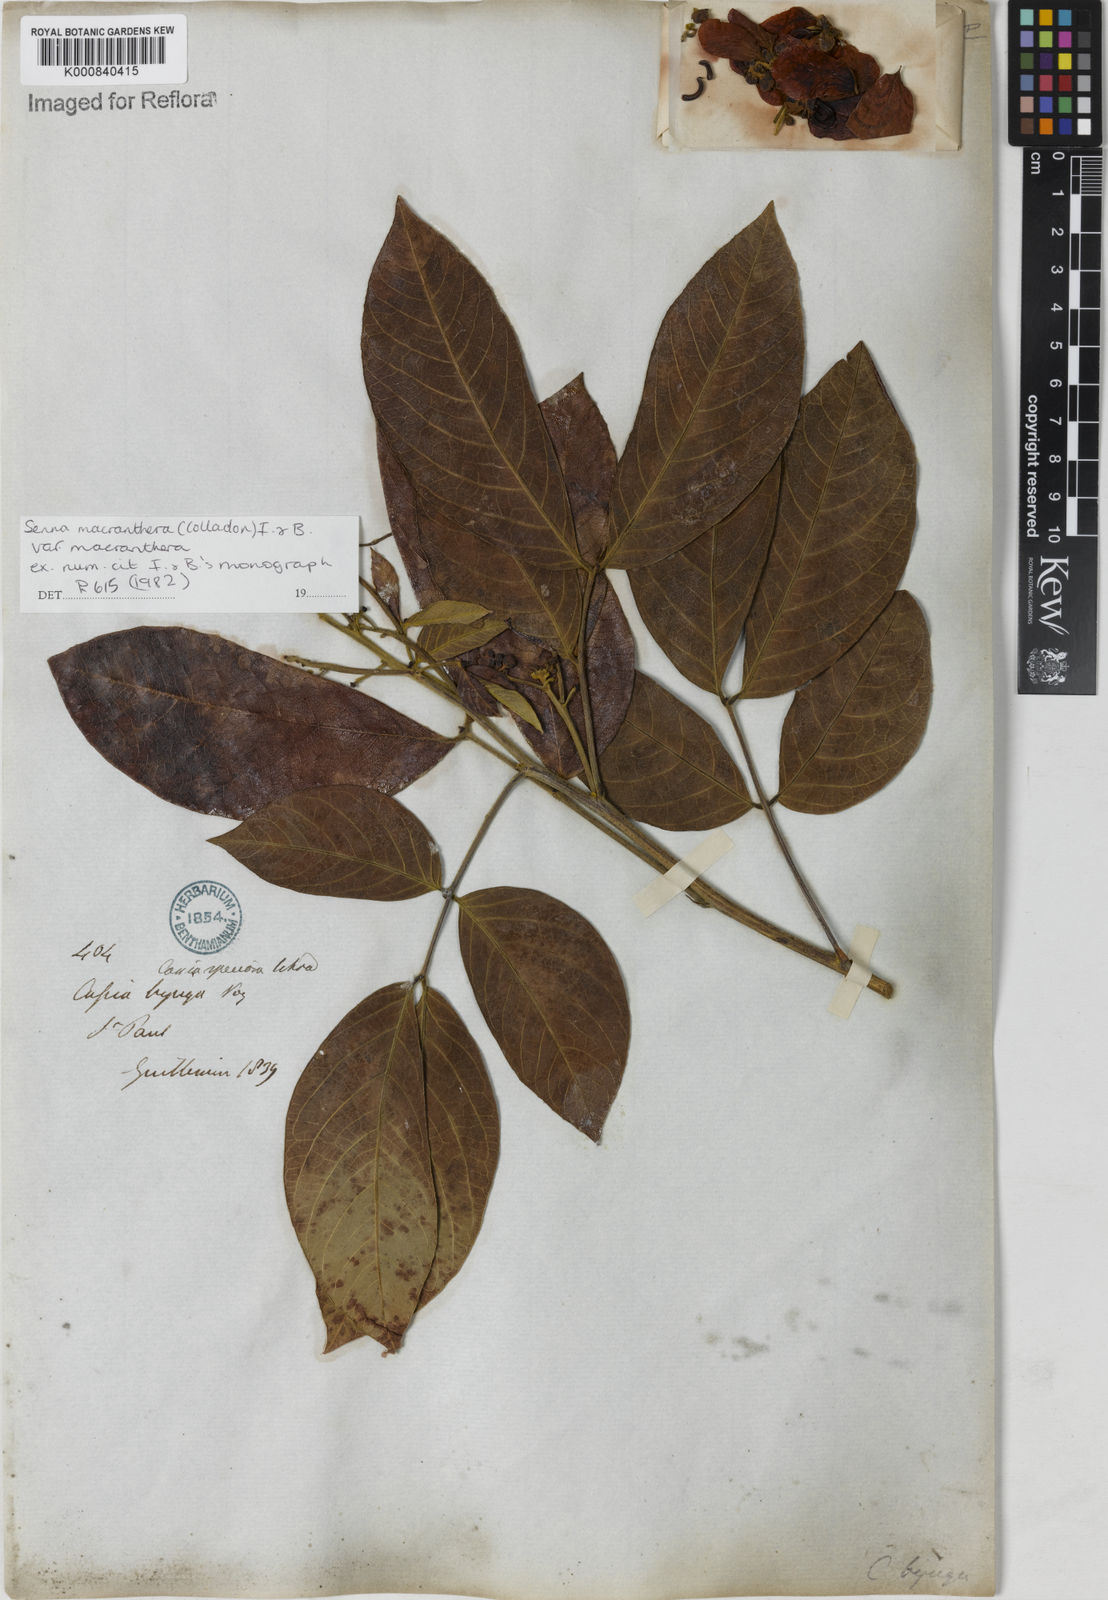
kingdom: Plantae
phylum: Tracheophyta
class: Magnoliopsida
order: Fabales
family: Fabaceae
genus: Senna
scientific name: Senna macranthera
